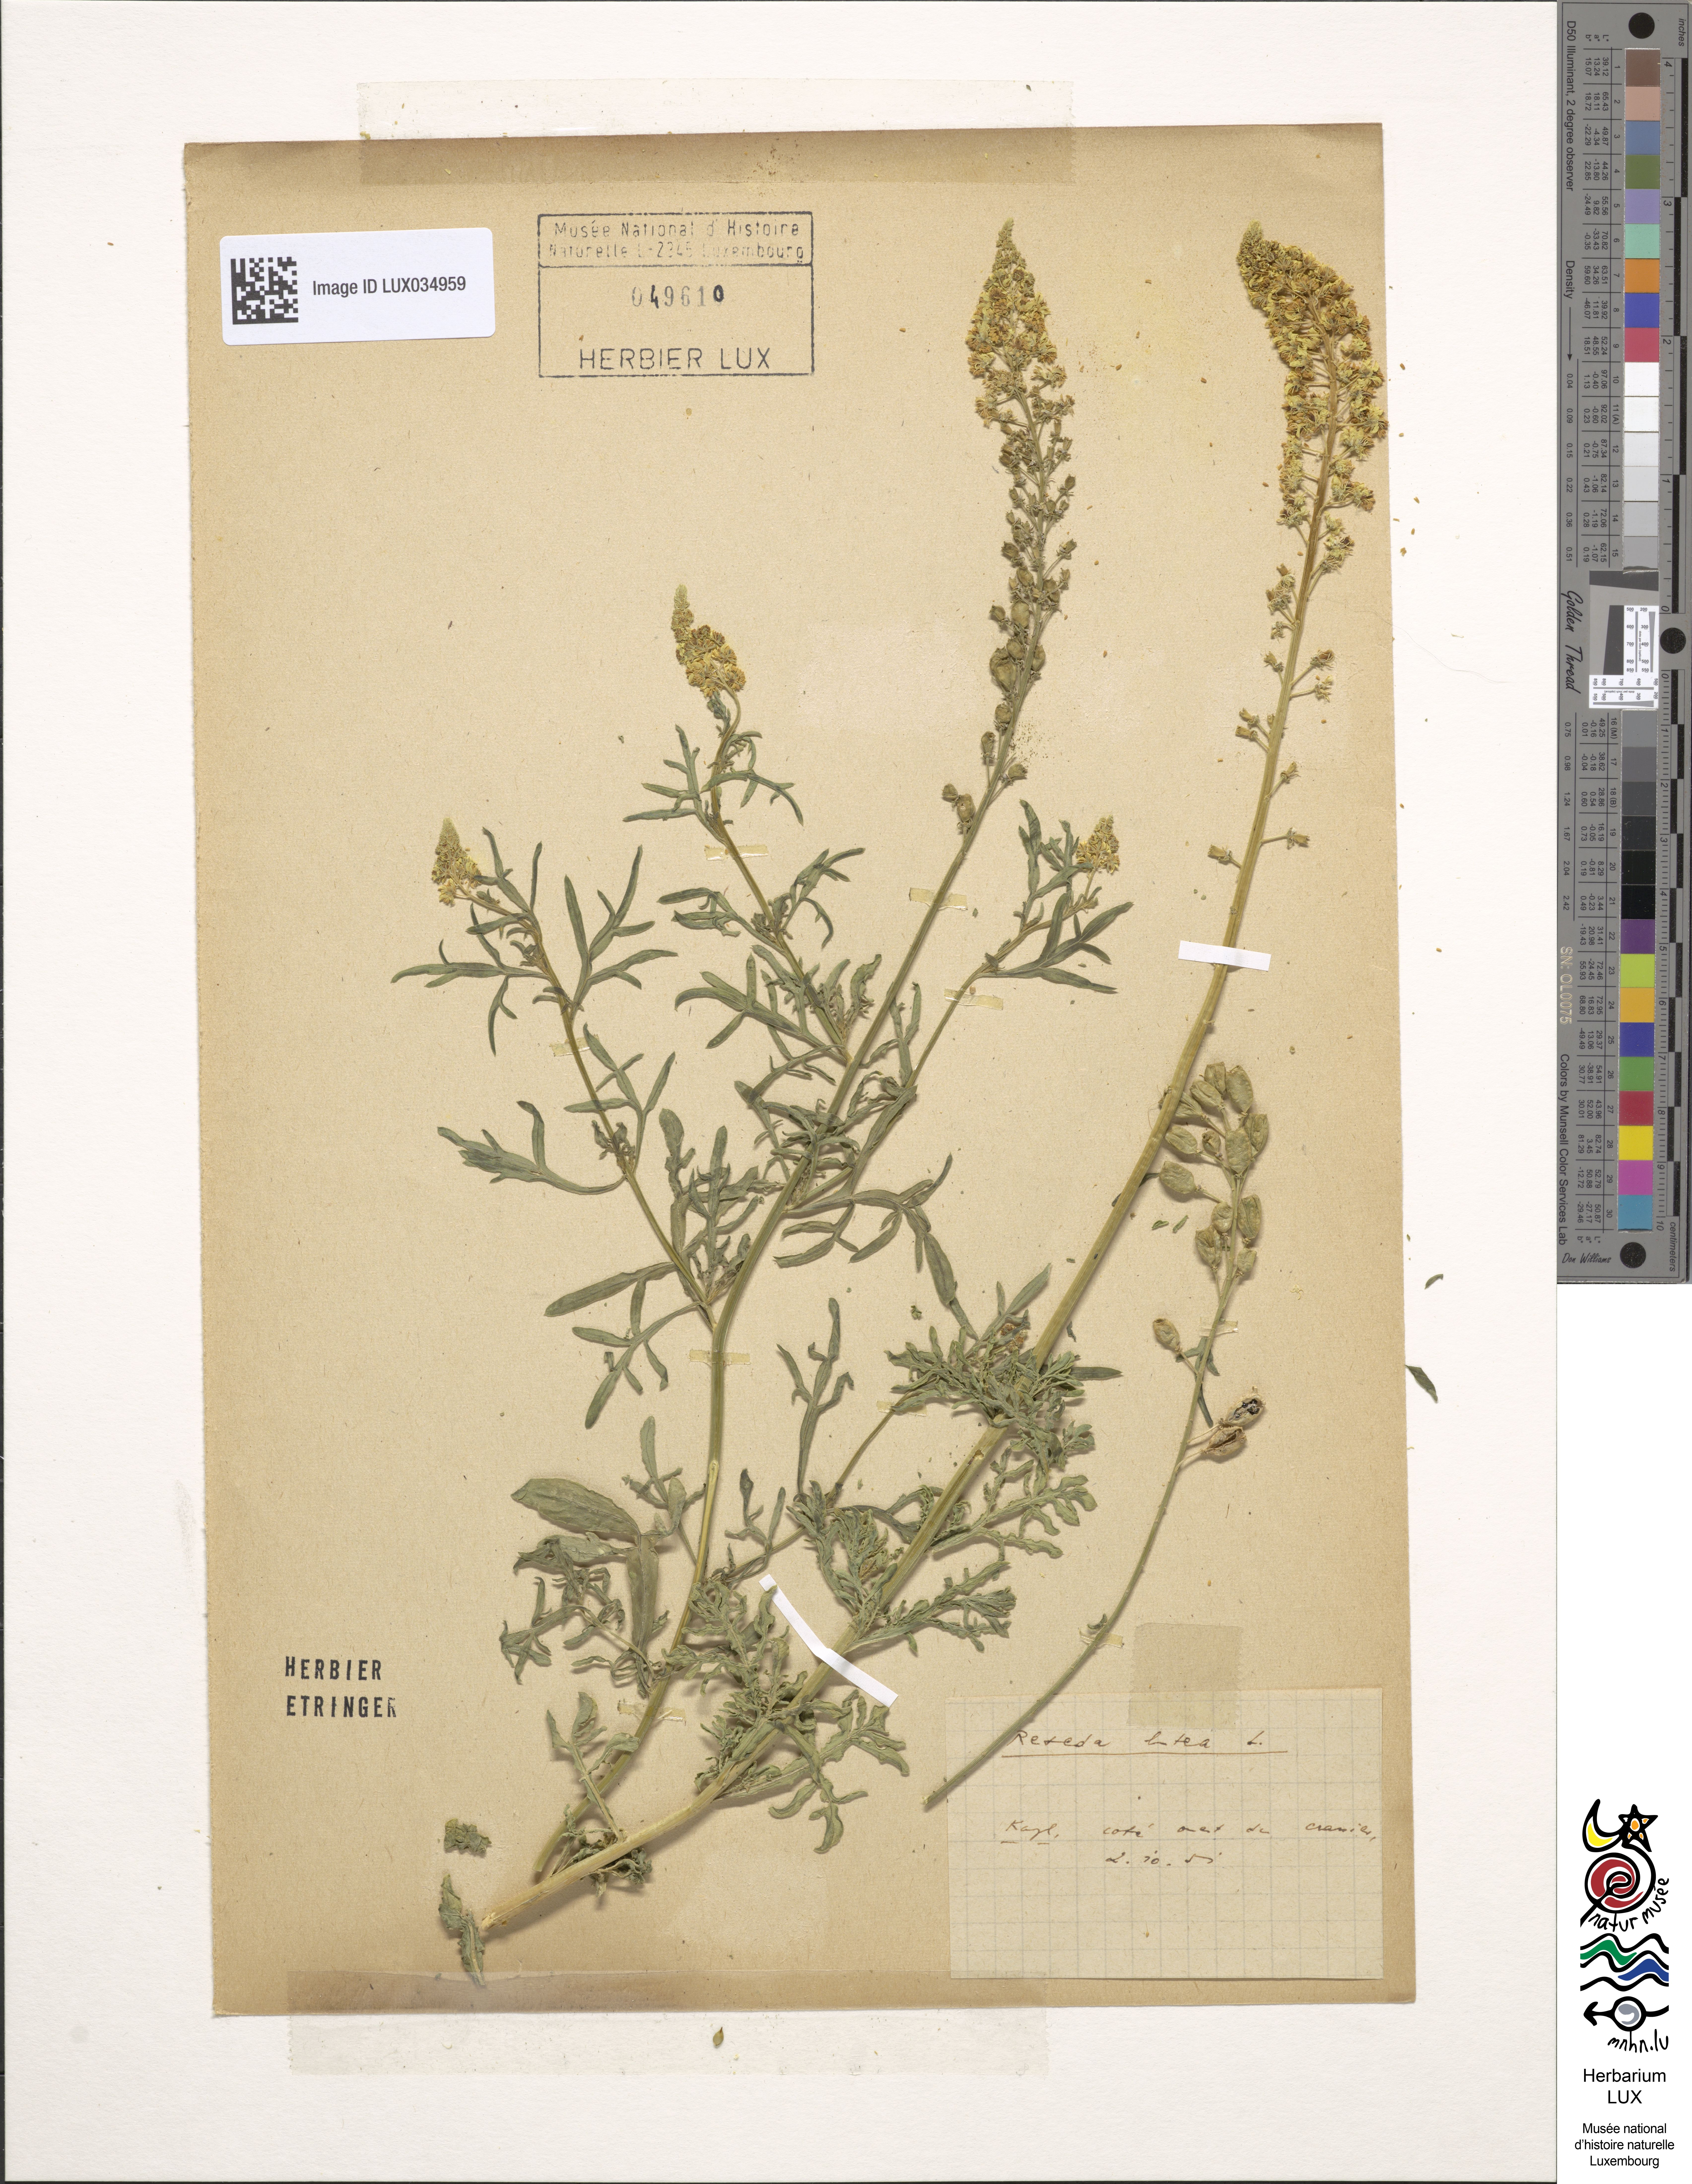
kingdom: Plantae
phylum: Tracheophyta
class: Magnoliopsida
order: Brassicales
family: Resedaceae
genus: Reseda
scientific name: Reseda luteola
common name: Weld
